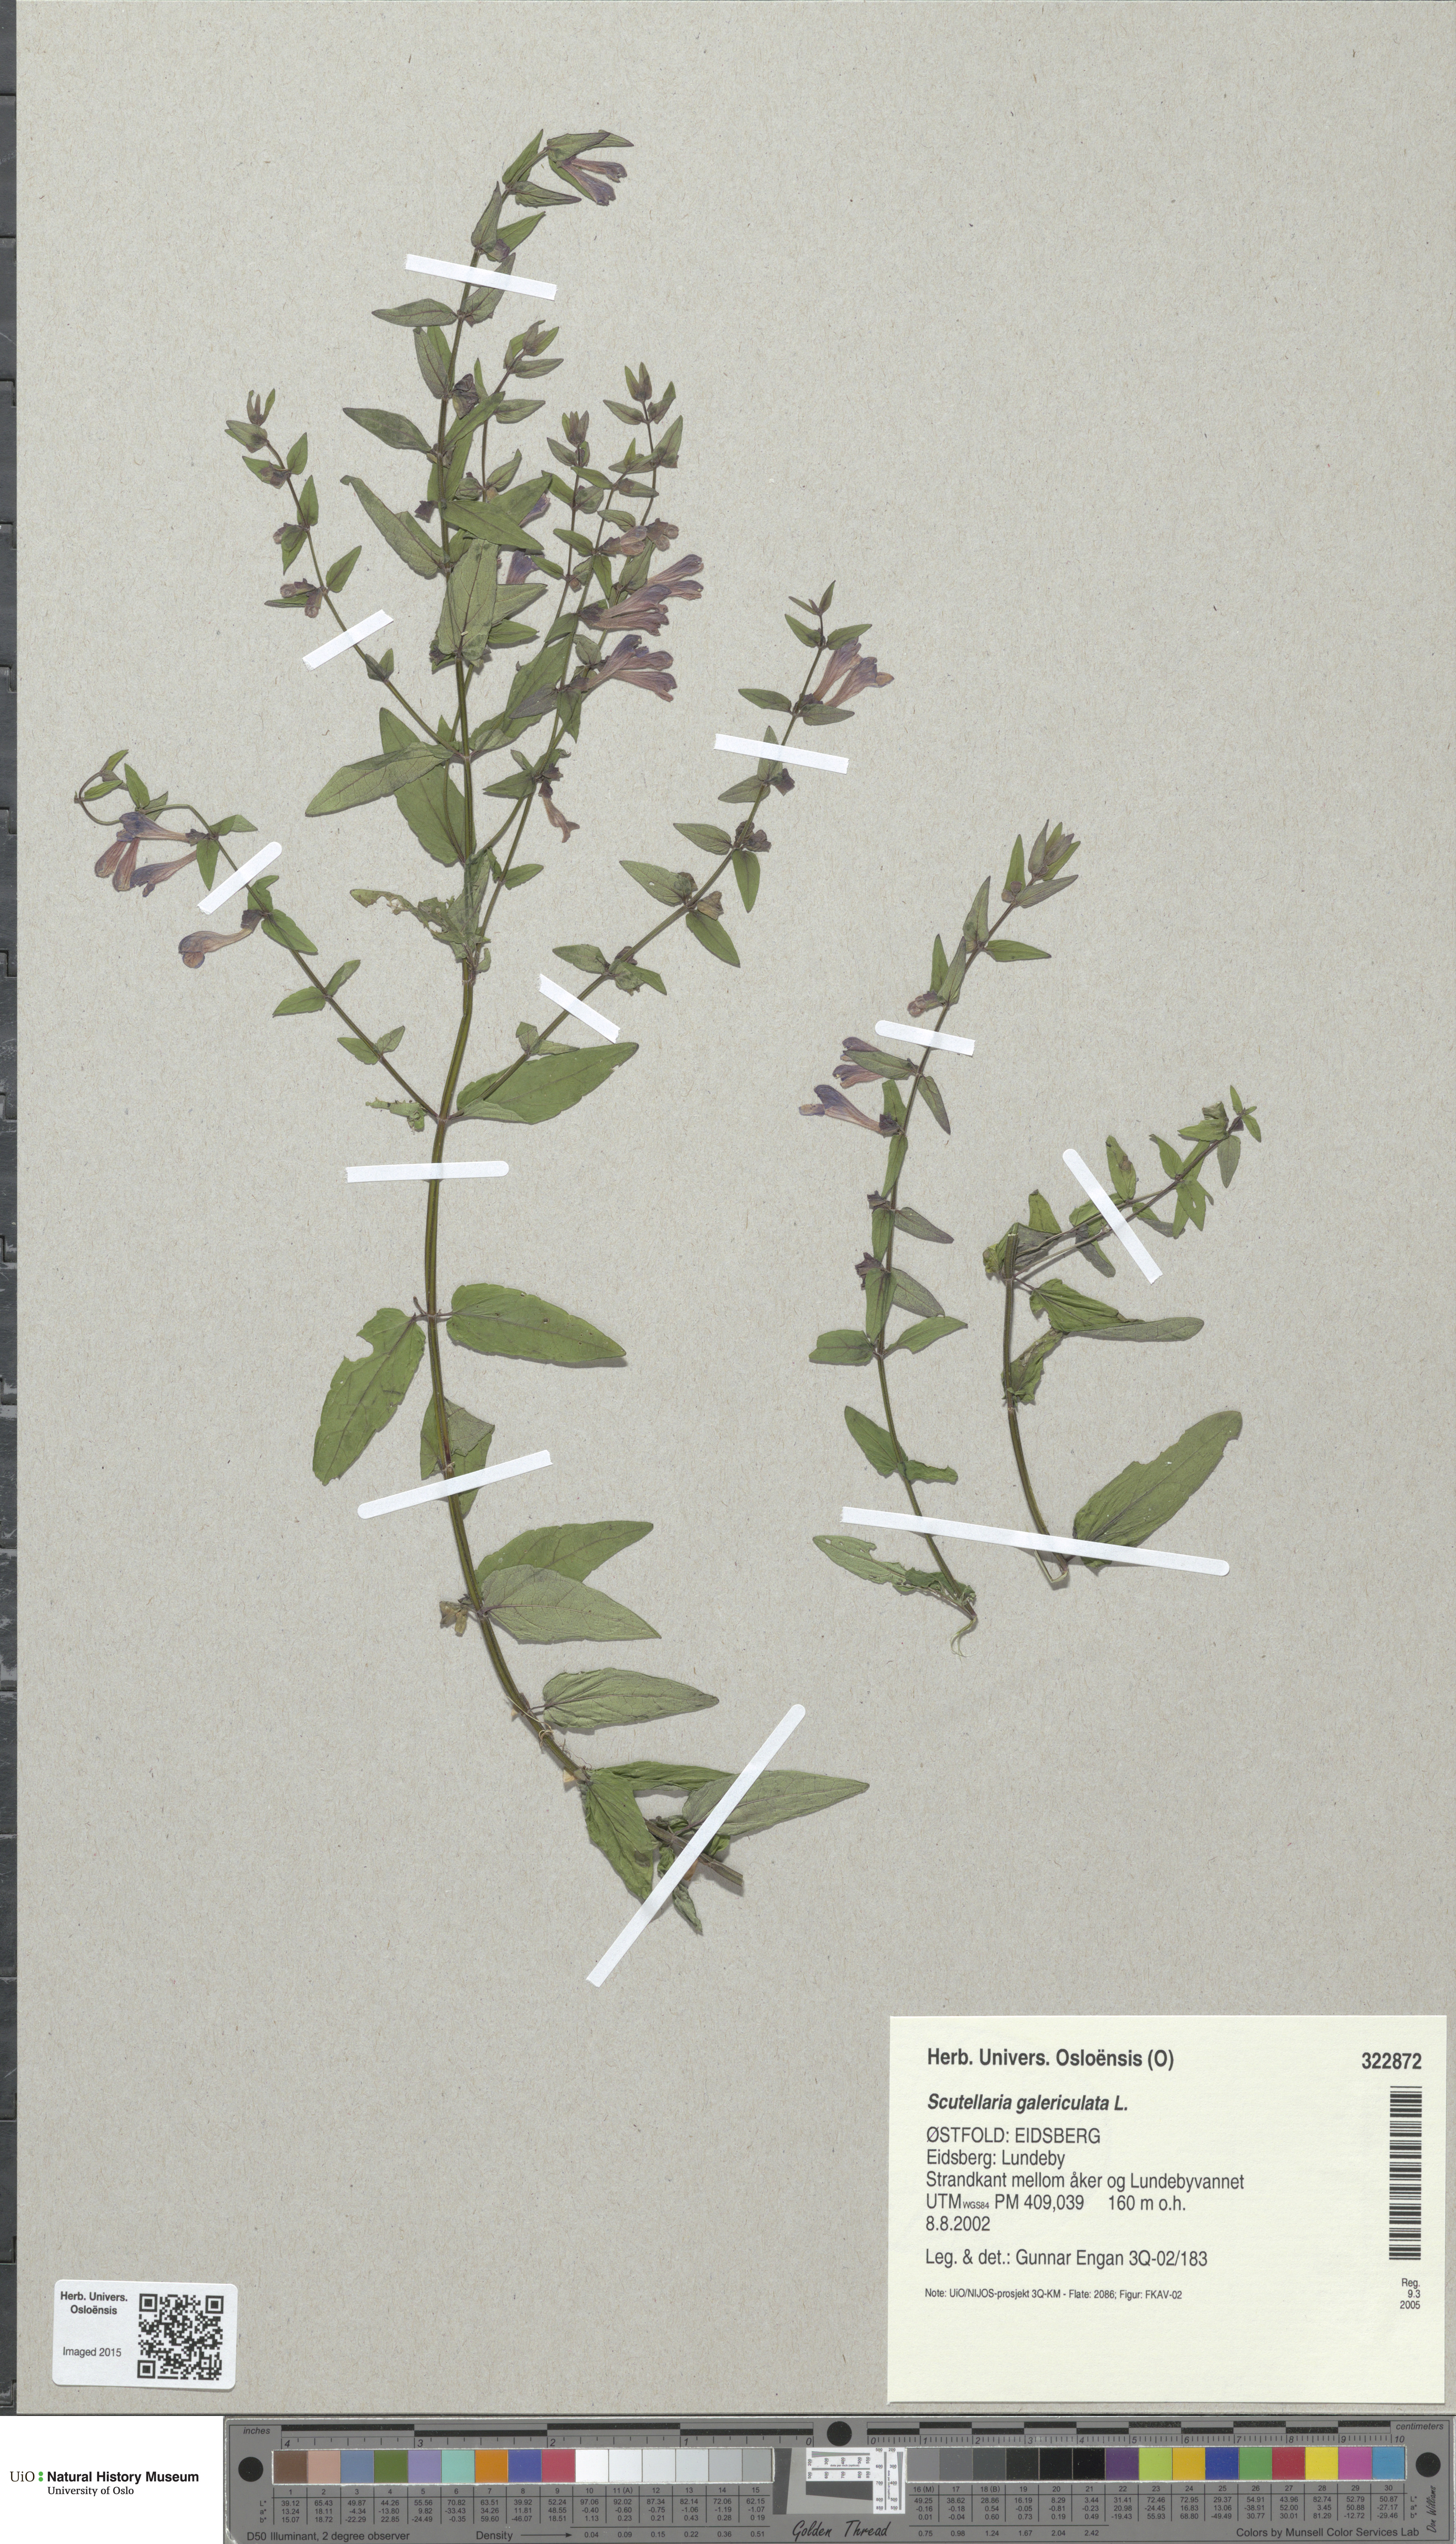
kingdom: Plantae
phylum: Tracheophyta
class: Magnoliopsida
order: Lamiales
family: Lamiaceae
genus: Scutellaria
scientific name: Scutellaria galericulata
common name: Skullcap
